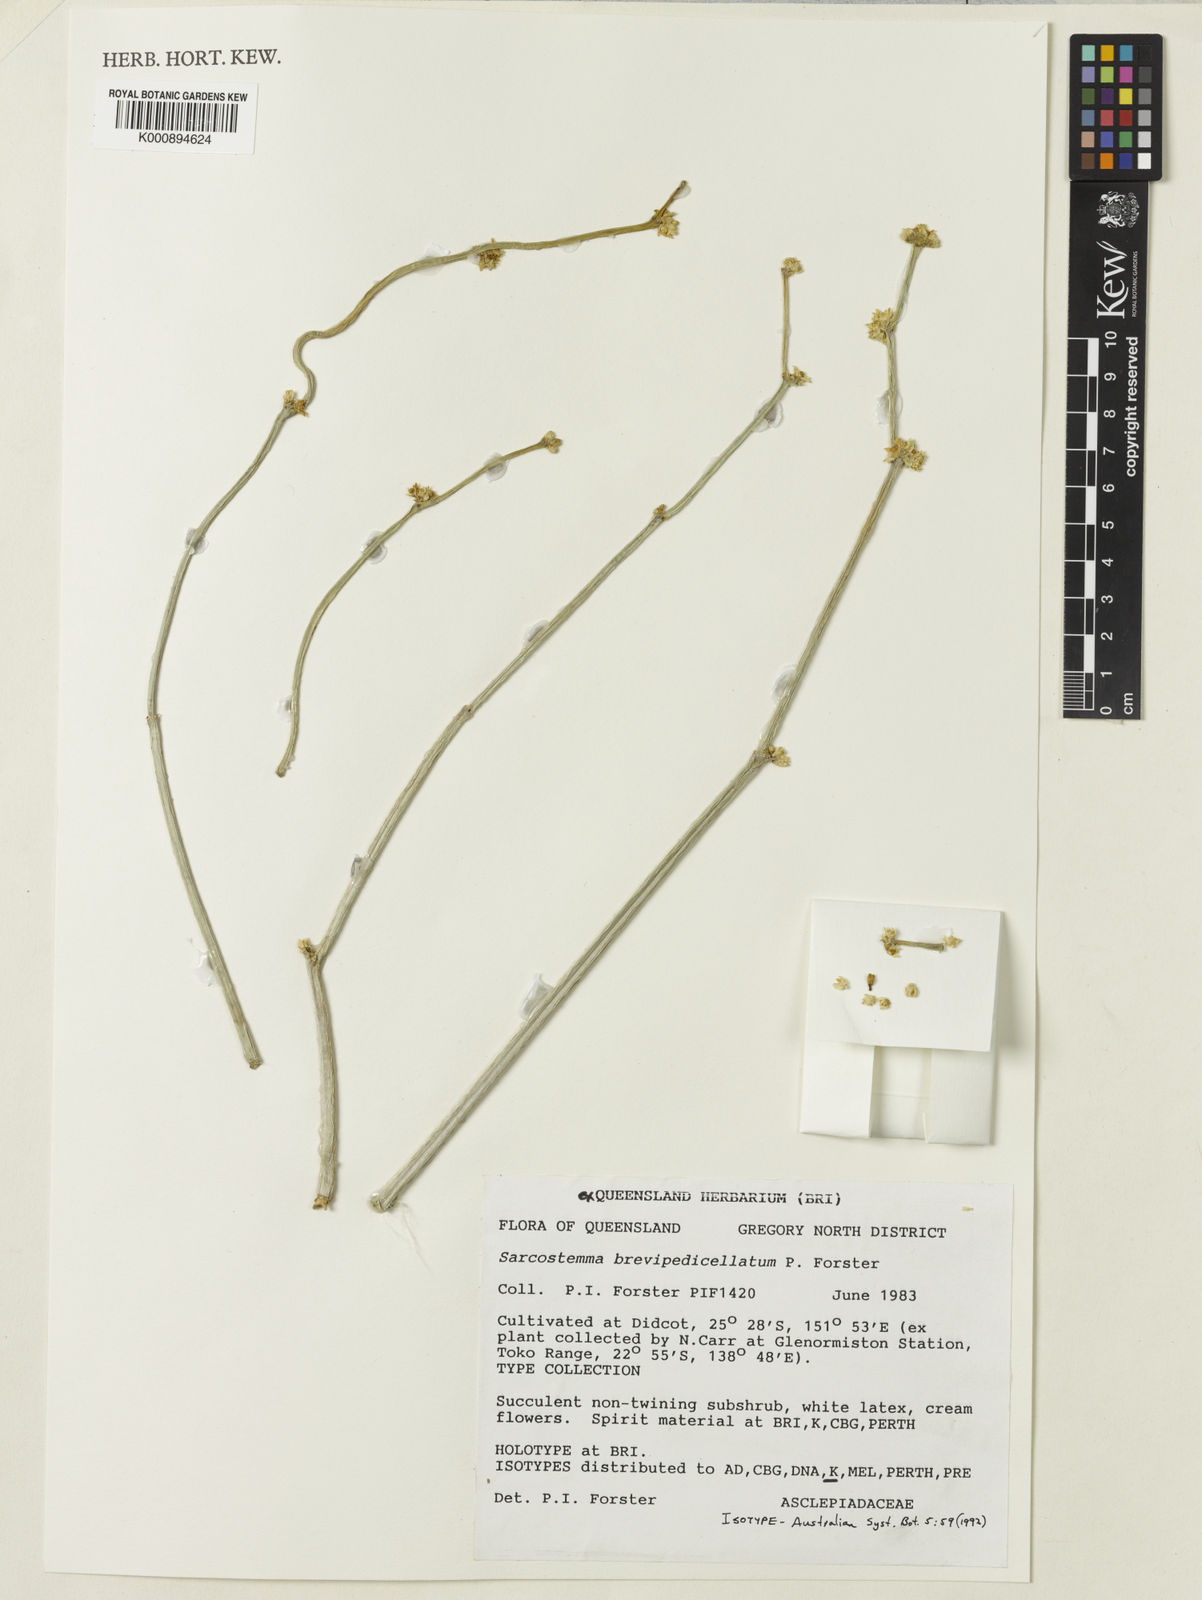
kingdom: Plantae
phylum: Tracheophyta
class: Magnoliopsida
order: Gentianales
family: Apocynaceae
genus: Cynanchum
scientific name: Cynanchum brevipedicellatum
